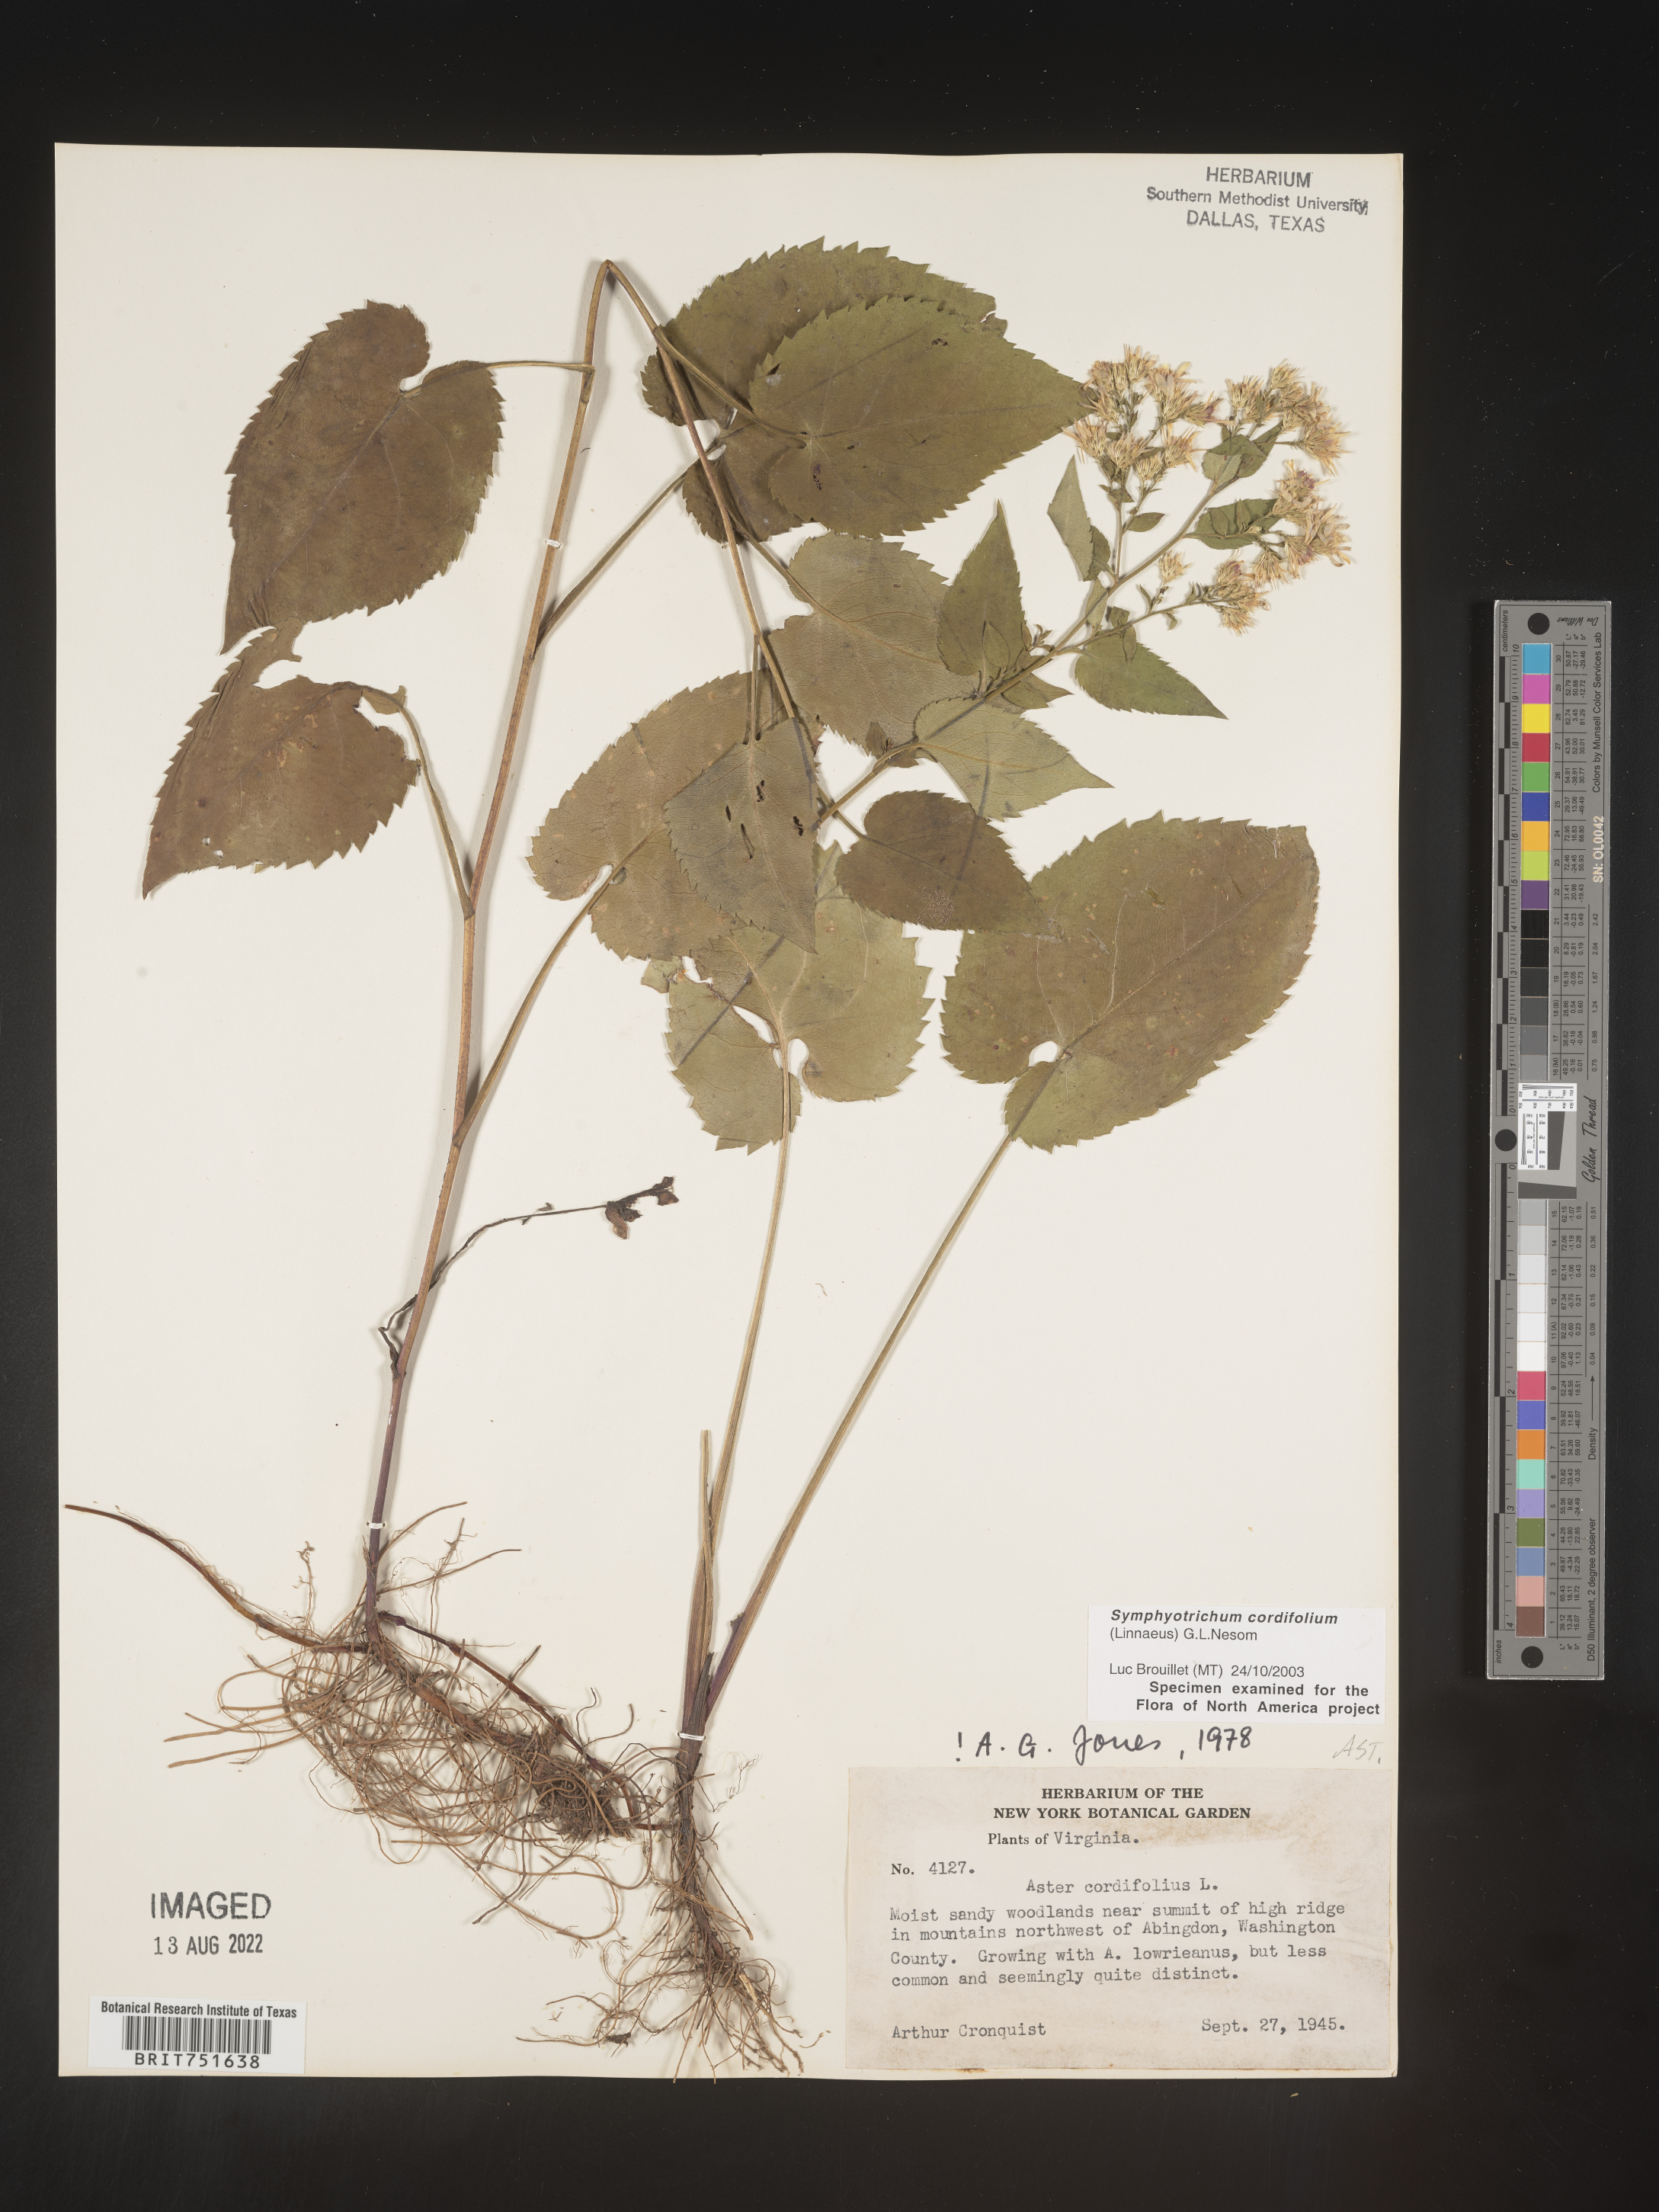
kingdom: Plantae
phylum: Tracheophyta
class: Magnoliopsida
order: Asterales
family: Asteraceae
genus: Symphyotrichum
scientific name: Symphyotrichum cordifolium
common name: Beeweed
